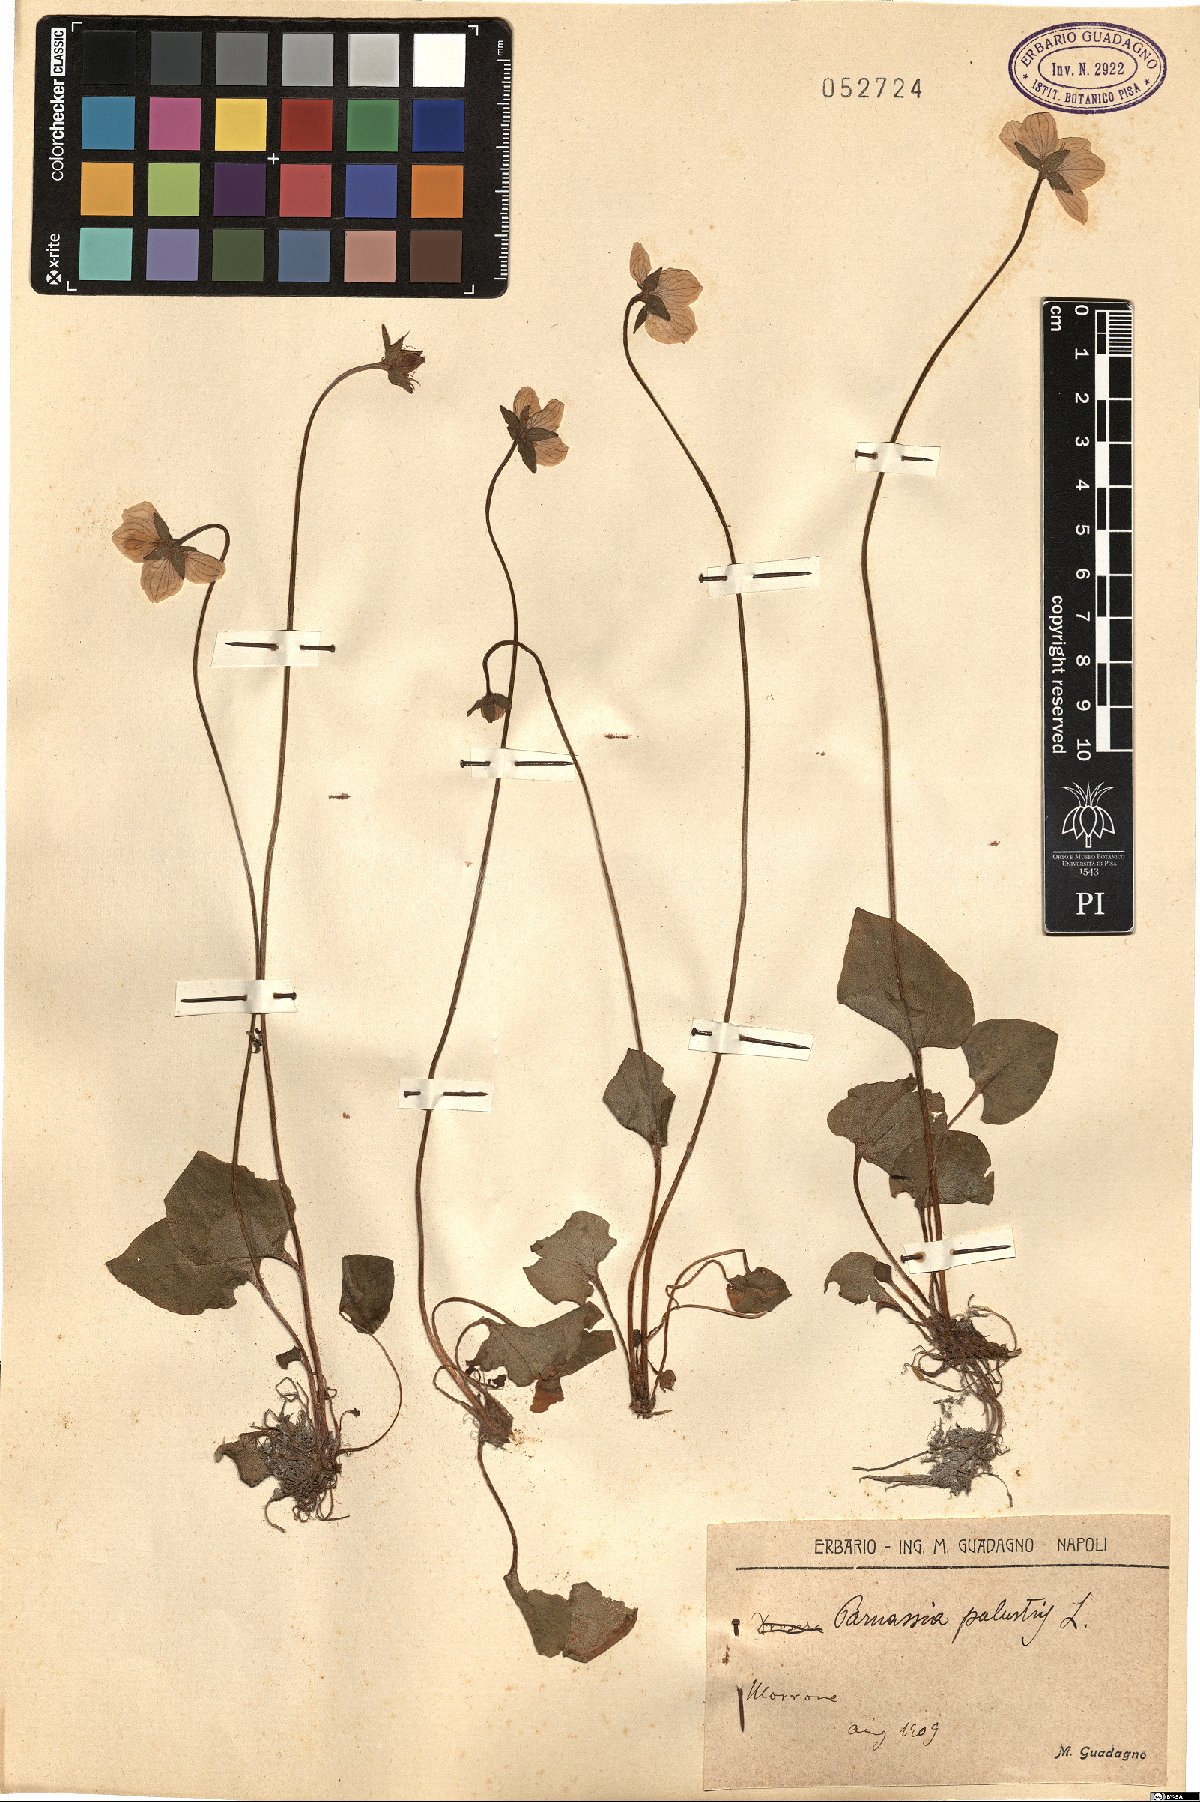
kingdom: Plantae
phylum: Tracheophyta
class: Magnoliopsida
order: Celastrales
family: Parnassiaceae
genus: Parnassia
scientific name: Parnassia palustris
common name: Grass-of-parnassus
